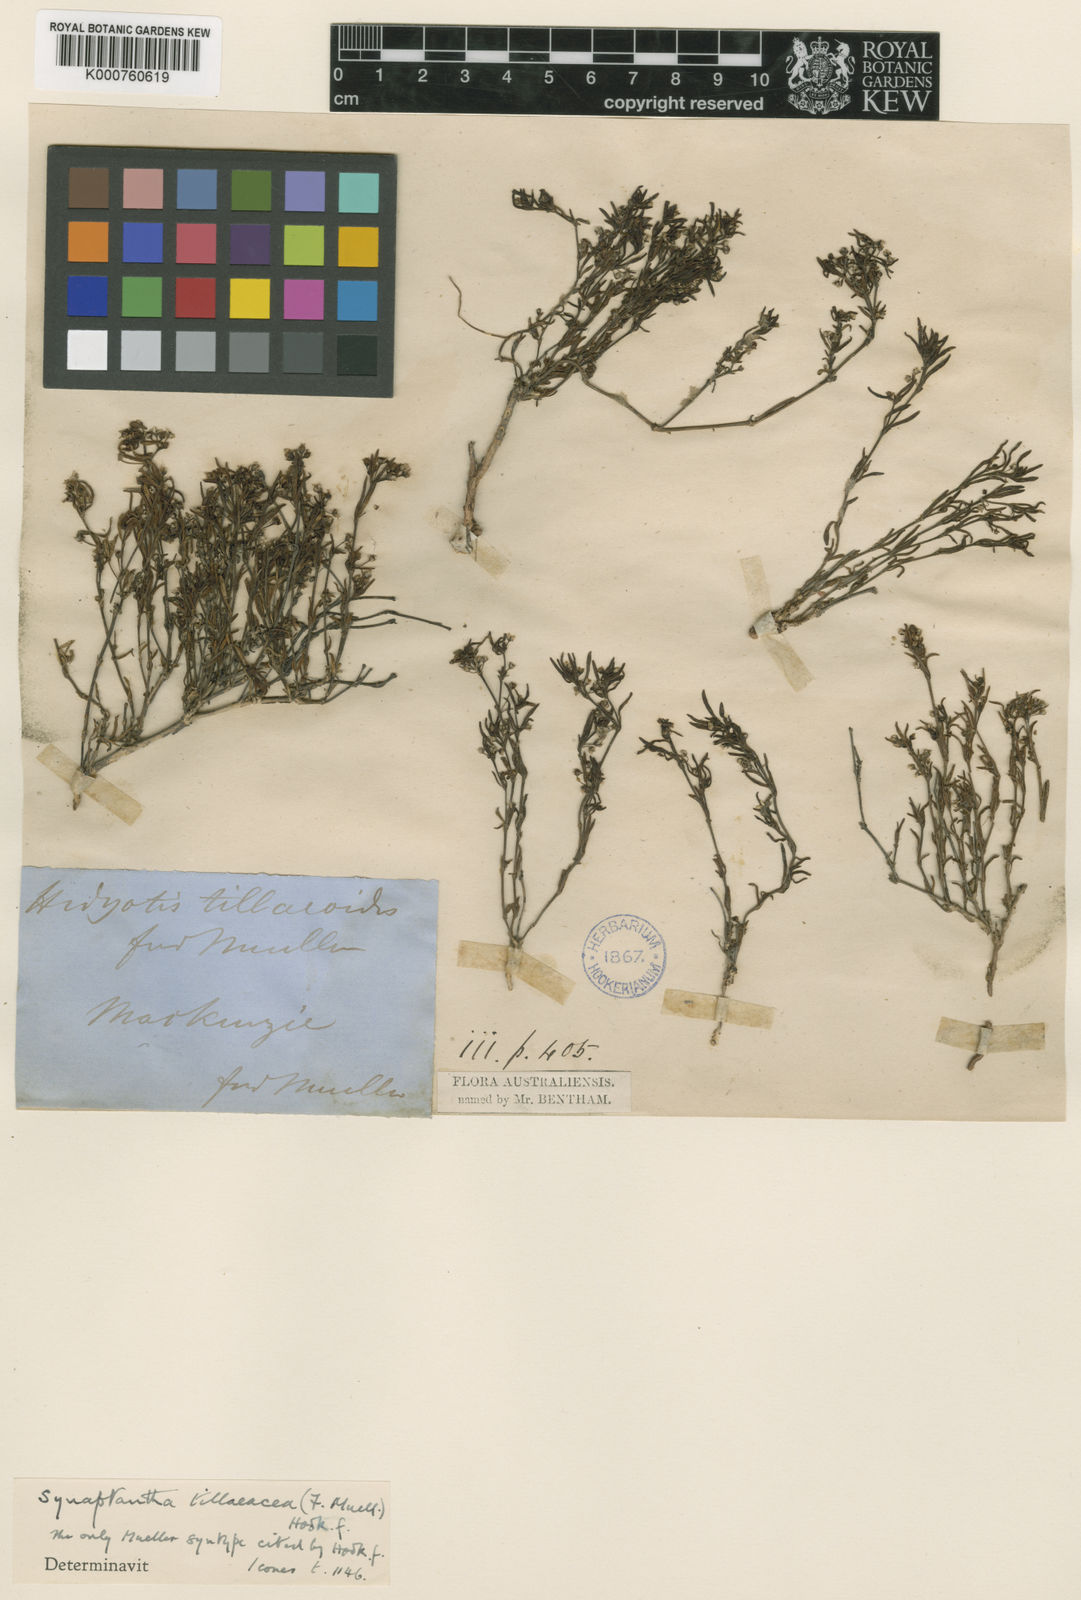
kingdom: Plantae
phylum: Tracheophyta
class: Magnoliopsida
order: Gentianales
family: Rubiaceae
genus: Synaptantha
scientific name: Synaptantha tillaeacea
